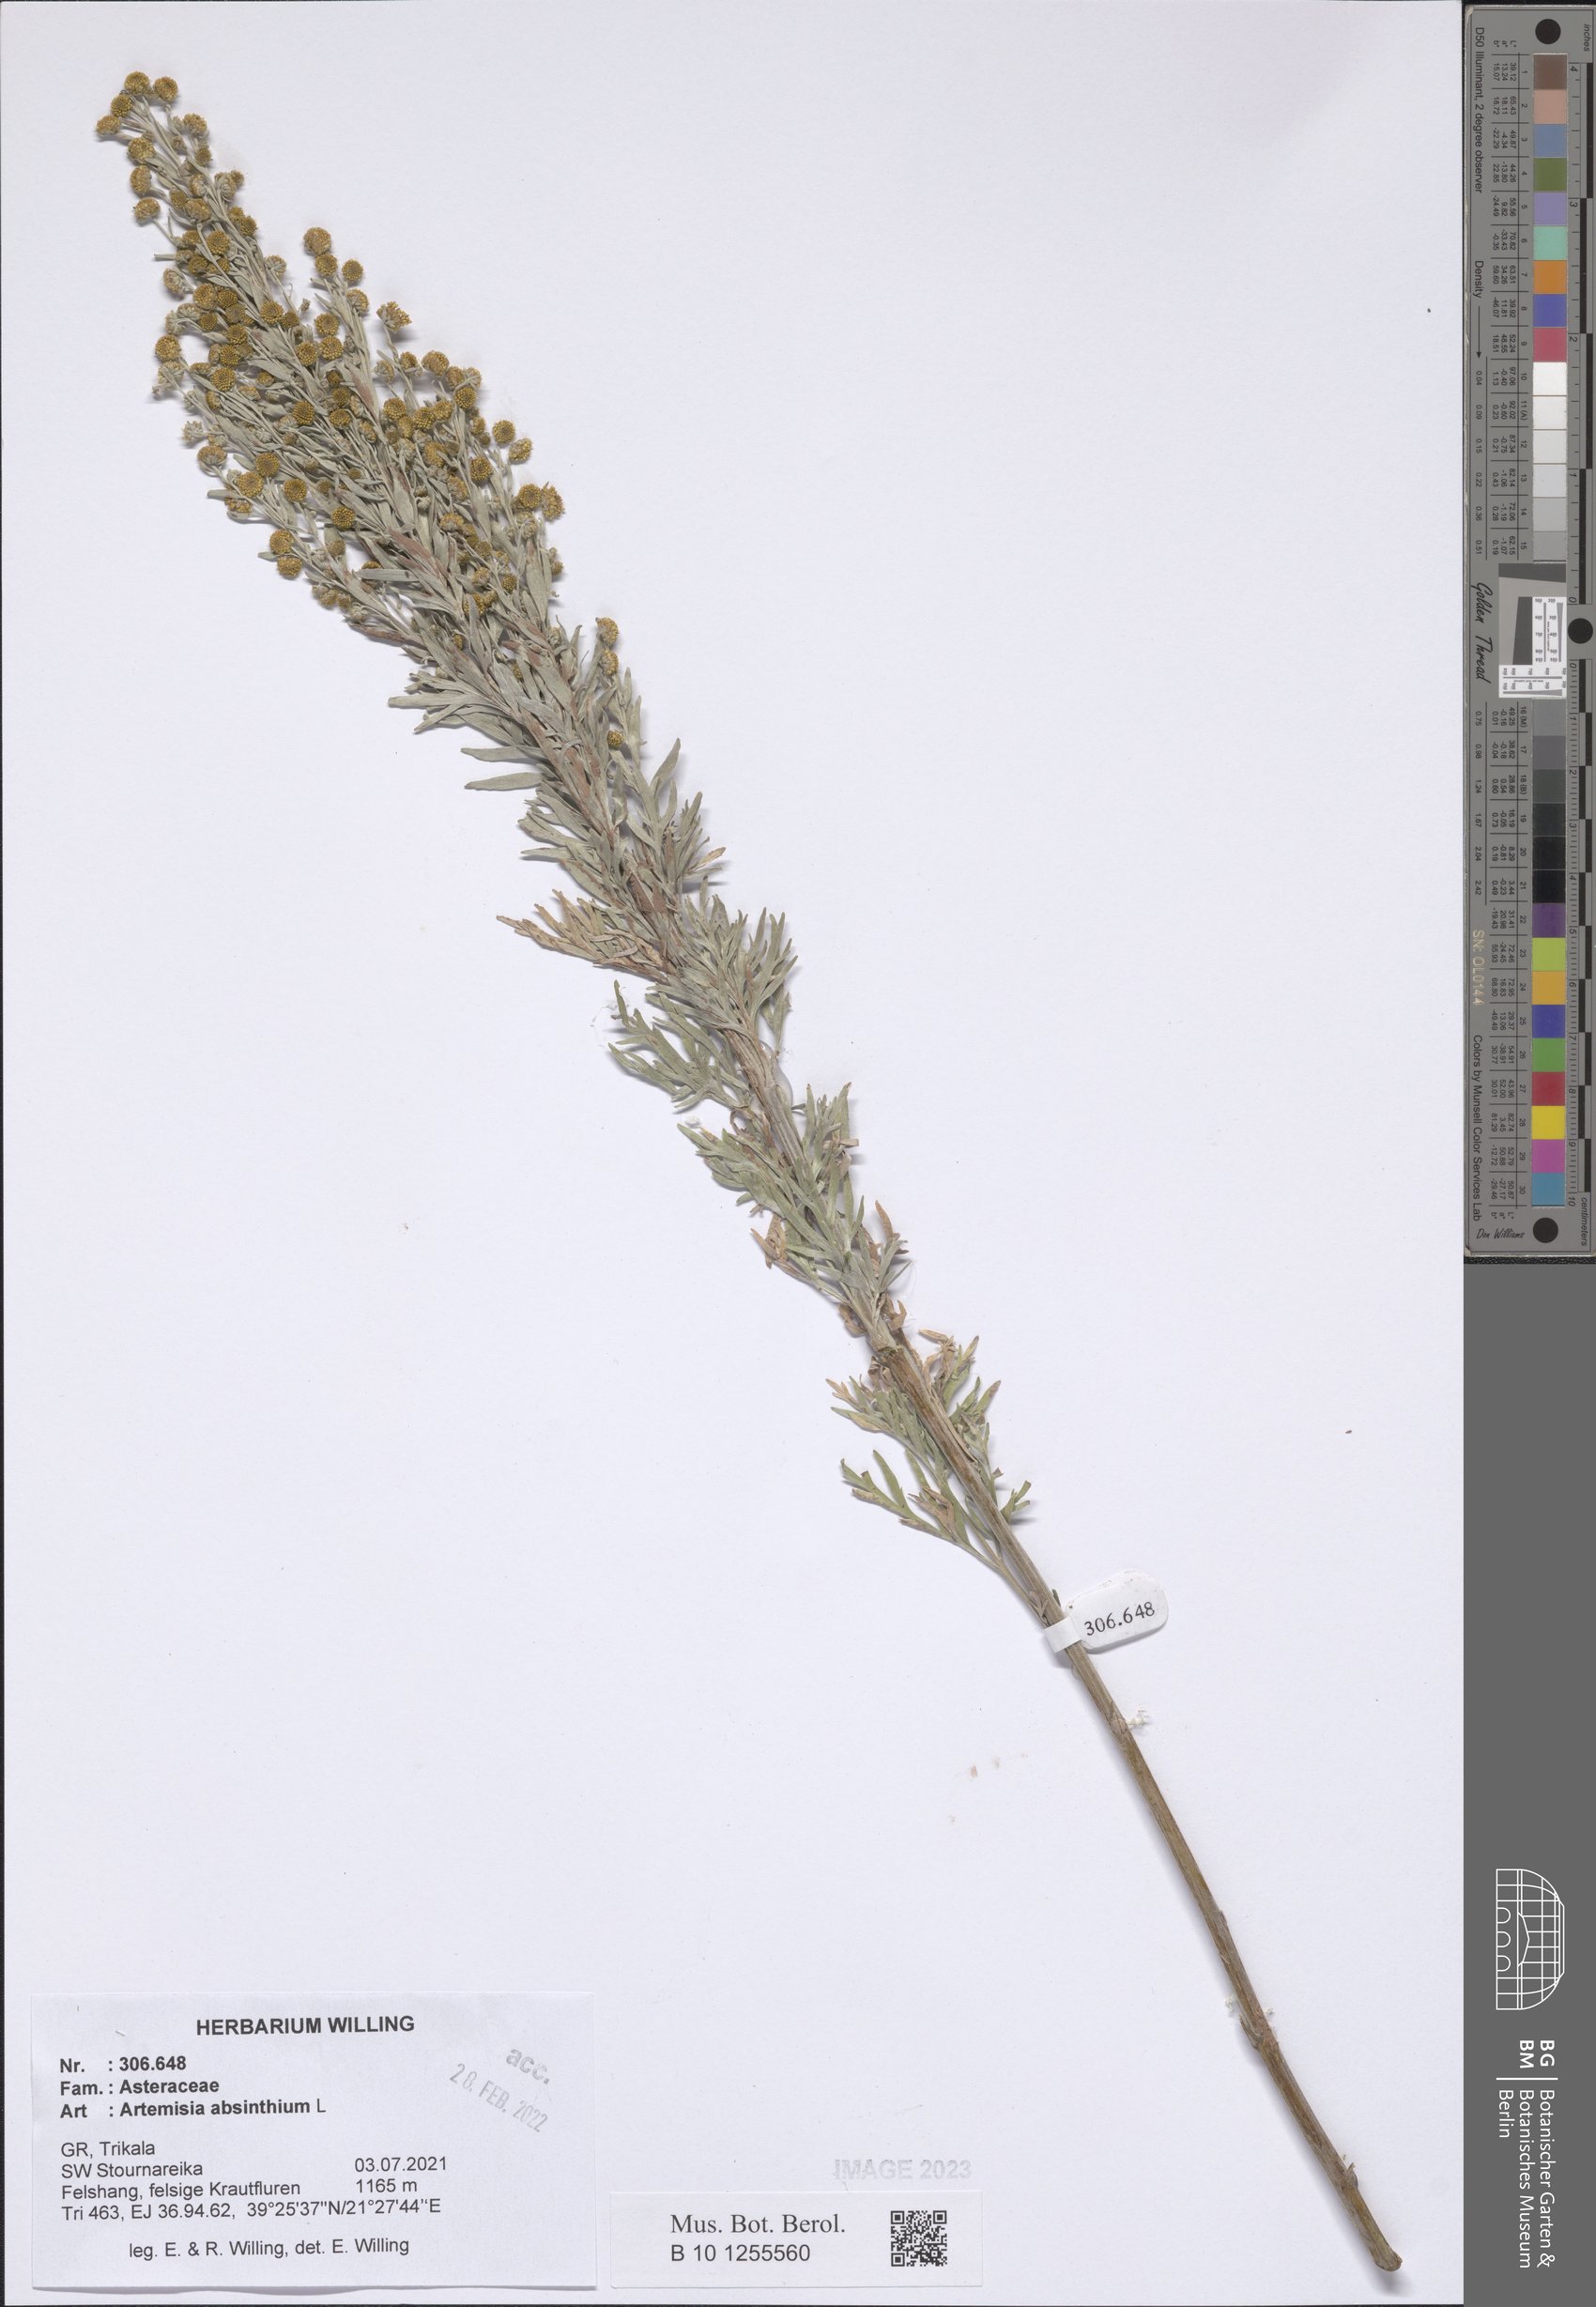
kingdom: Plantae
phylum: Tracheophyta
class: Magnoliopsida
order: Asterales
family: Asteraceae
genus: Artemisia
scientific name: Artemisia absinthium
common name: Wormwood
